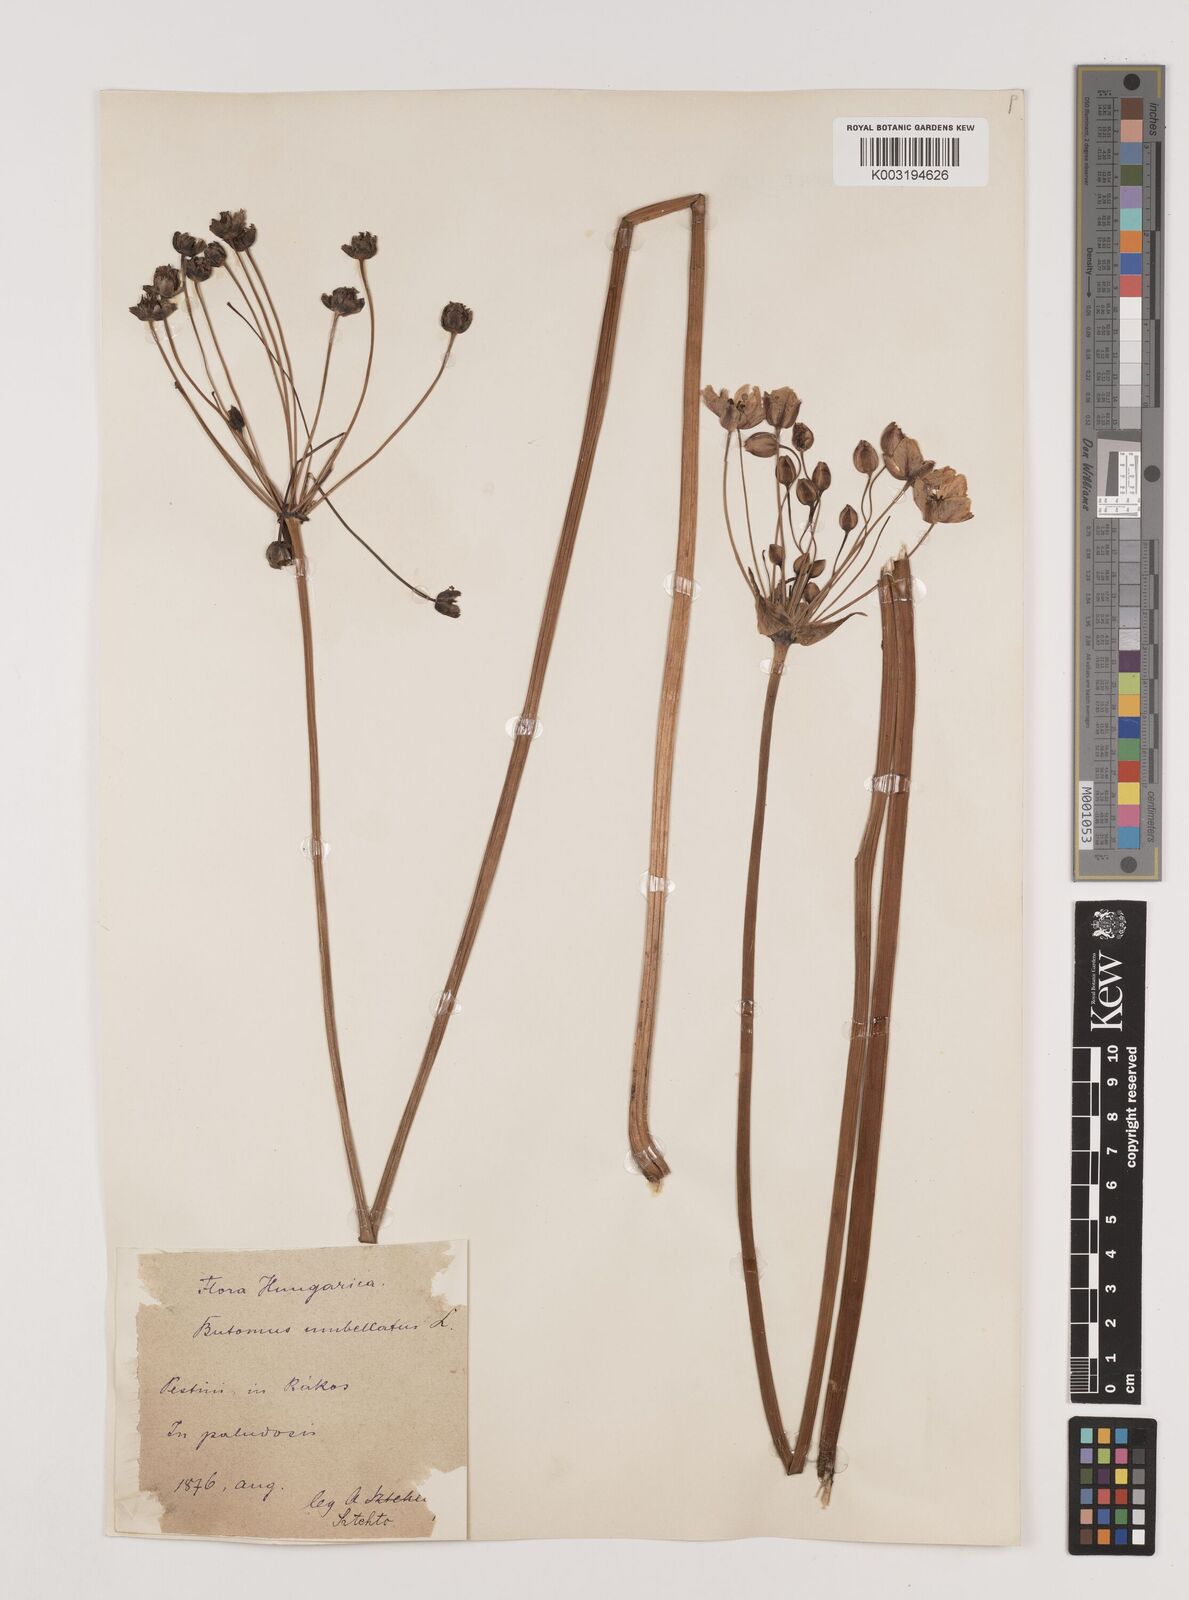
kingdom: Plantae
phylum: Tracheophyta
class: Liliopsida
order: Alismatales
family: Butomaceae
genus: Butomus
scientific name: Butomus umbellatus
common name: Flowering-rush
